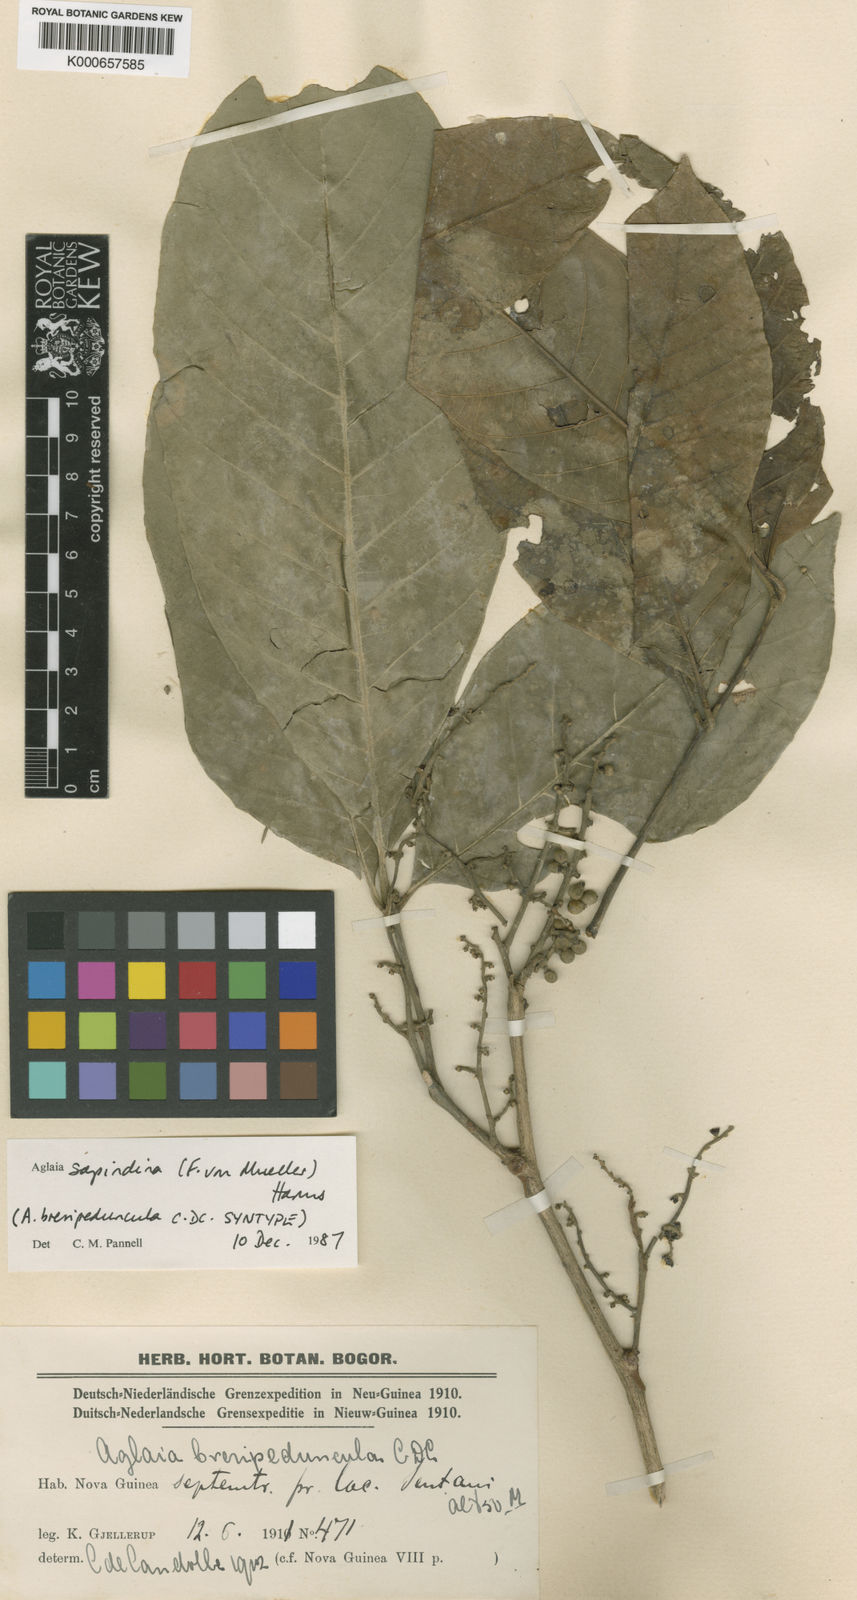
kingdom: Plantae
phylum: Tracheophyta
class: Magnoliopsida
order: Sapindales
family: Meliaceae
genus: Aglaia
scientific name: Aglaia sapindina
